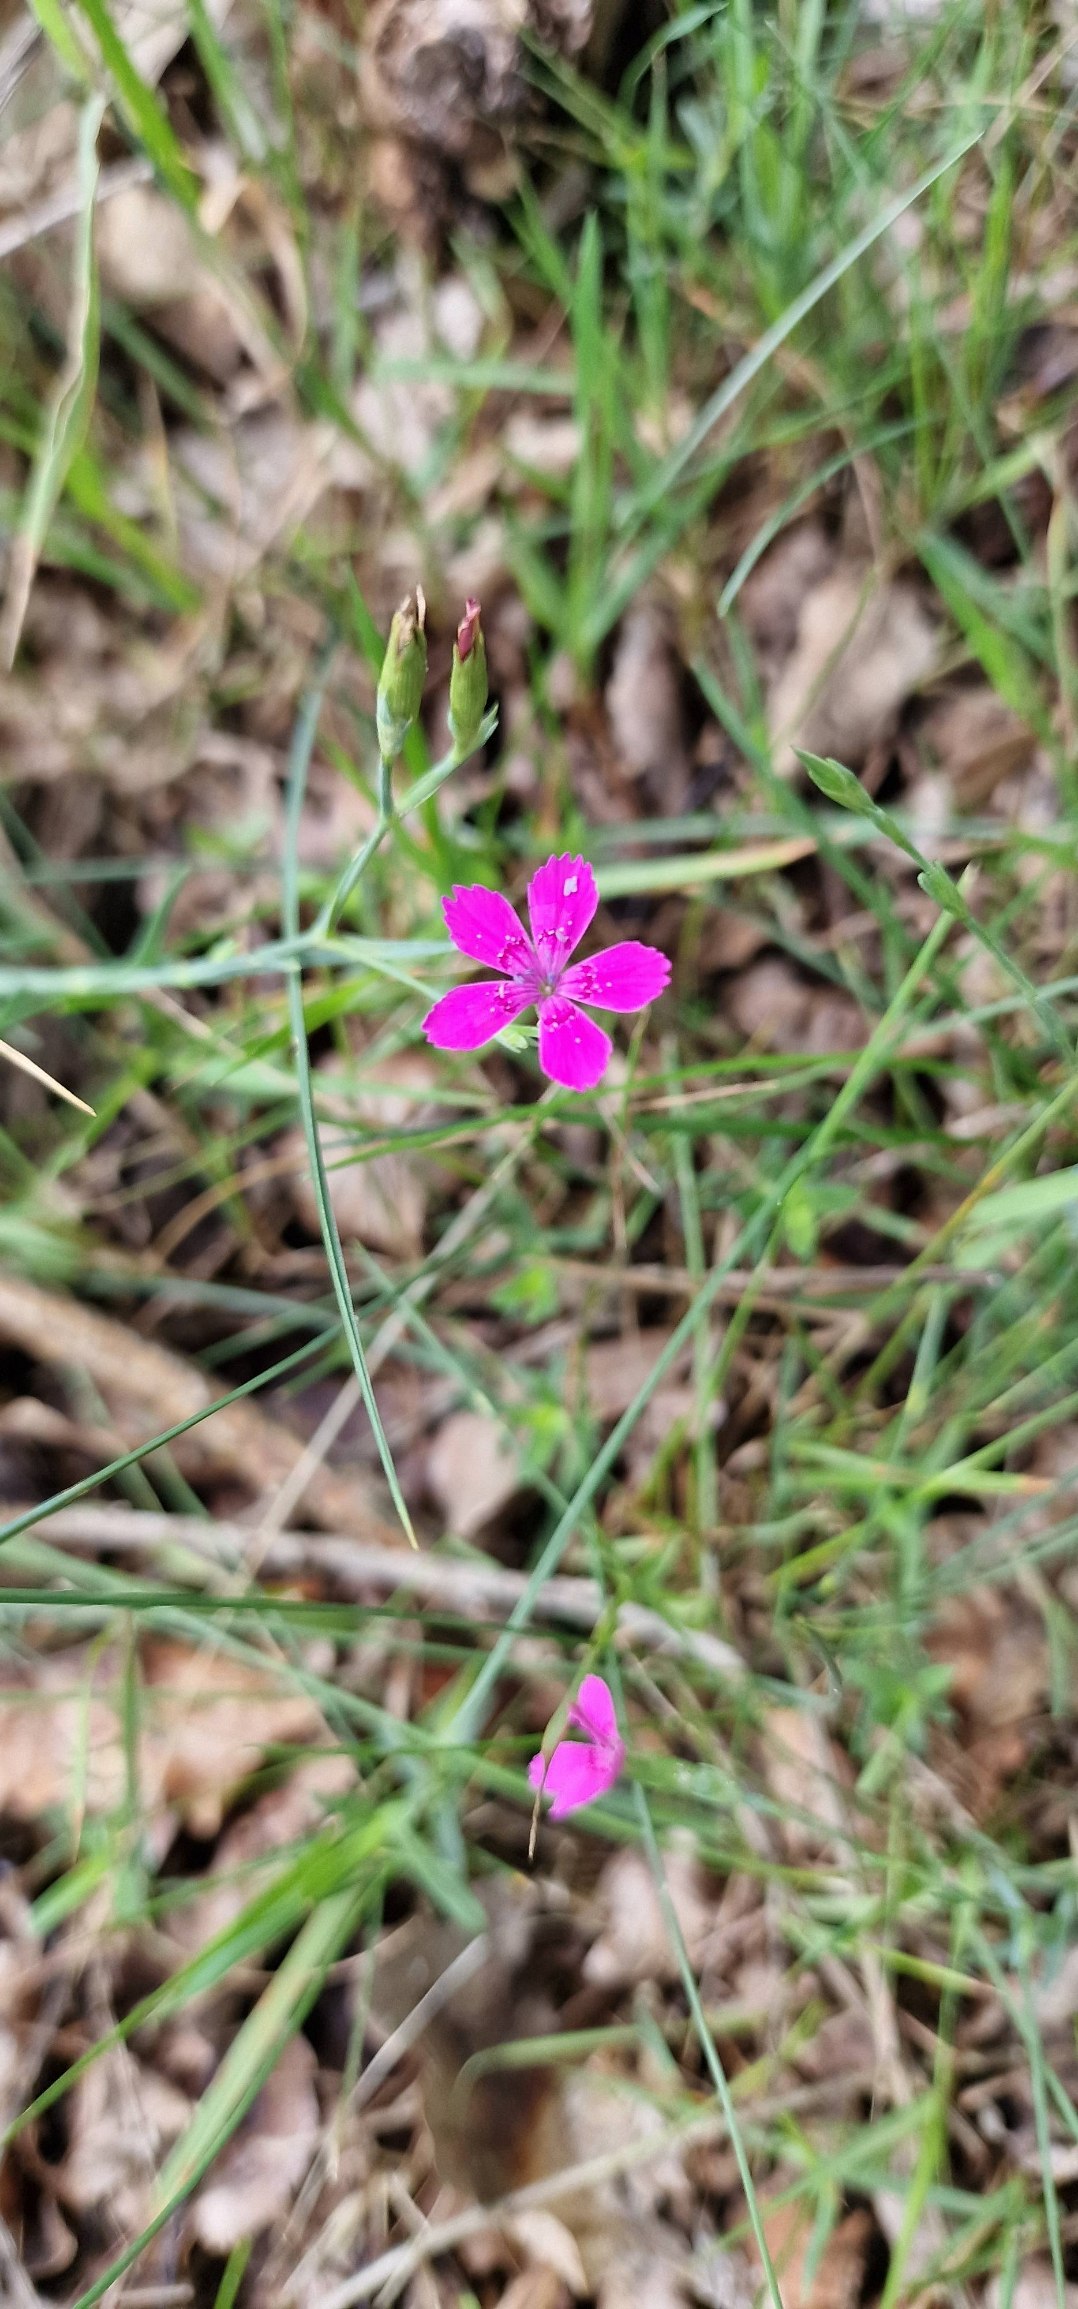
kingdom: Plantae
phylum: Tracheophyta
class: Magnoliopsida
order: Caryophyllales
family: Caryophyllaceae
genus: Dianthus
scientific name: Dianthus deltoides
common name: Bakke-nellike
